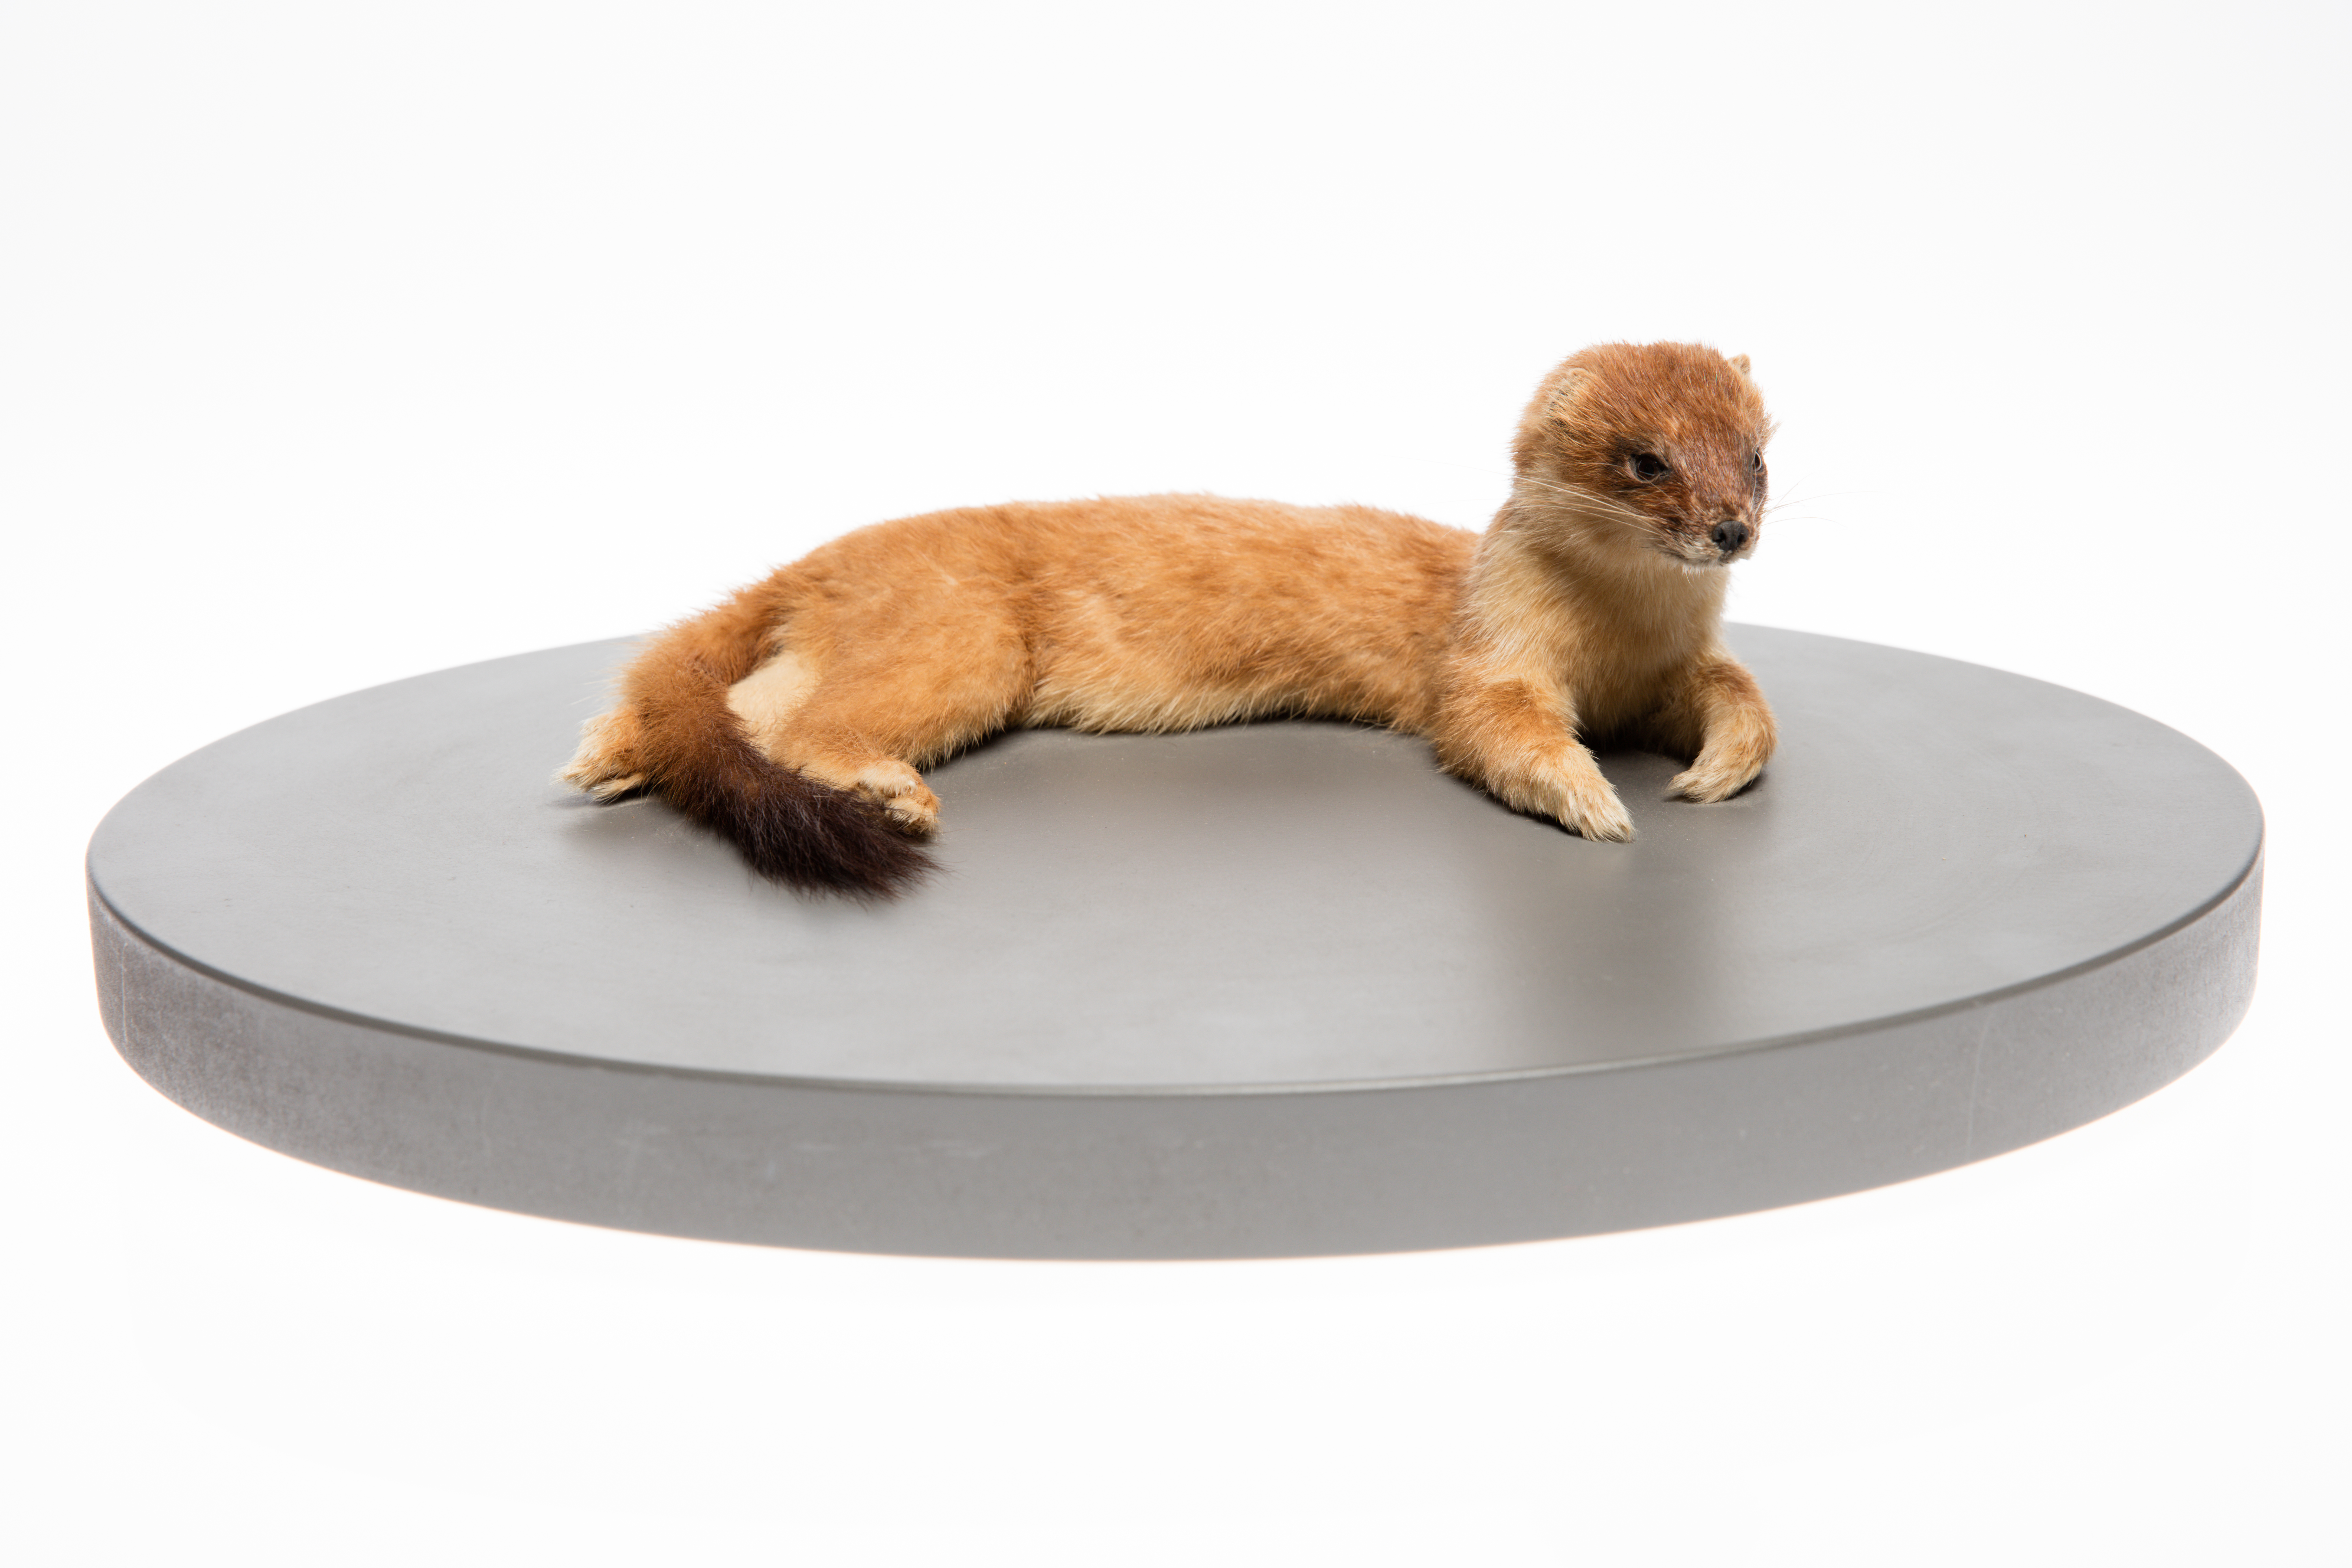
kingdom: Animalia
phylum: Chordata
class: Mammalia
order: Carnivora
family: Mustelidae
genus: Mustela
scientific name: Mustela erminea
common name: Stoat
